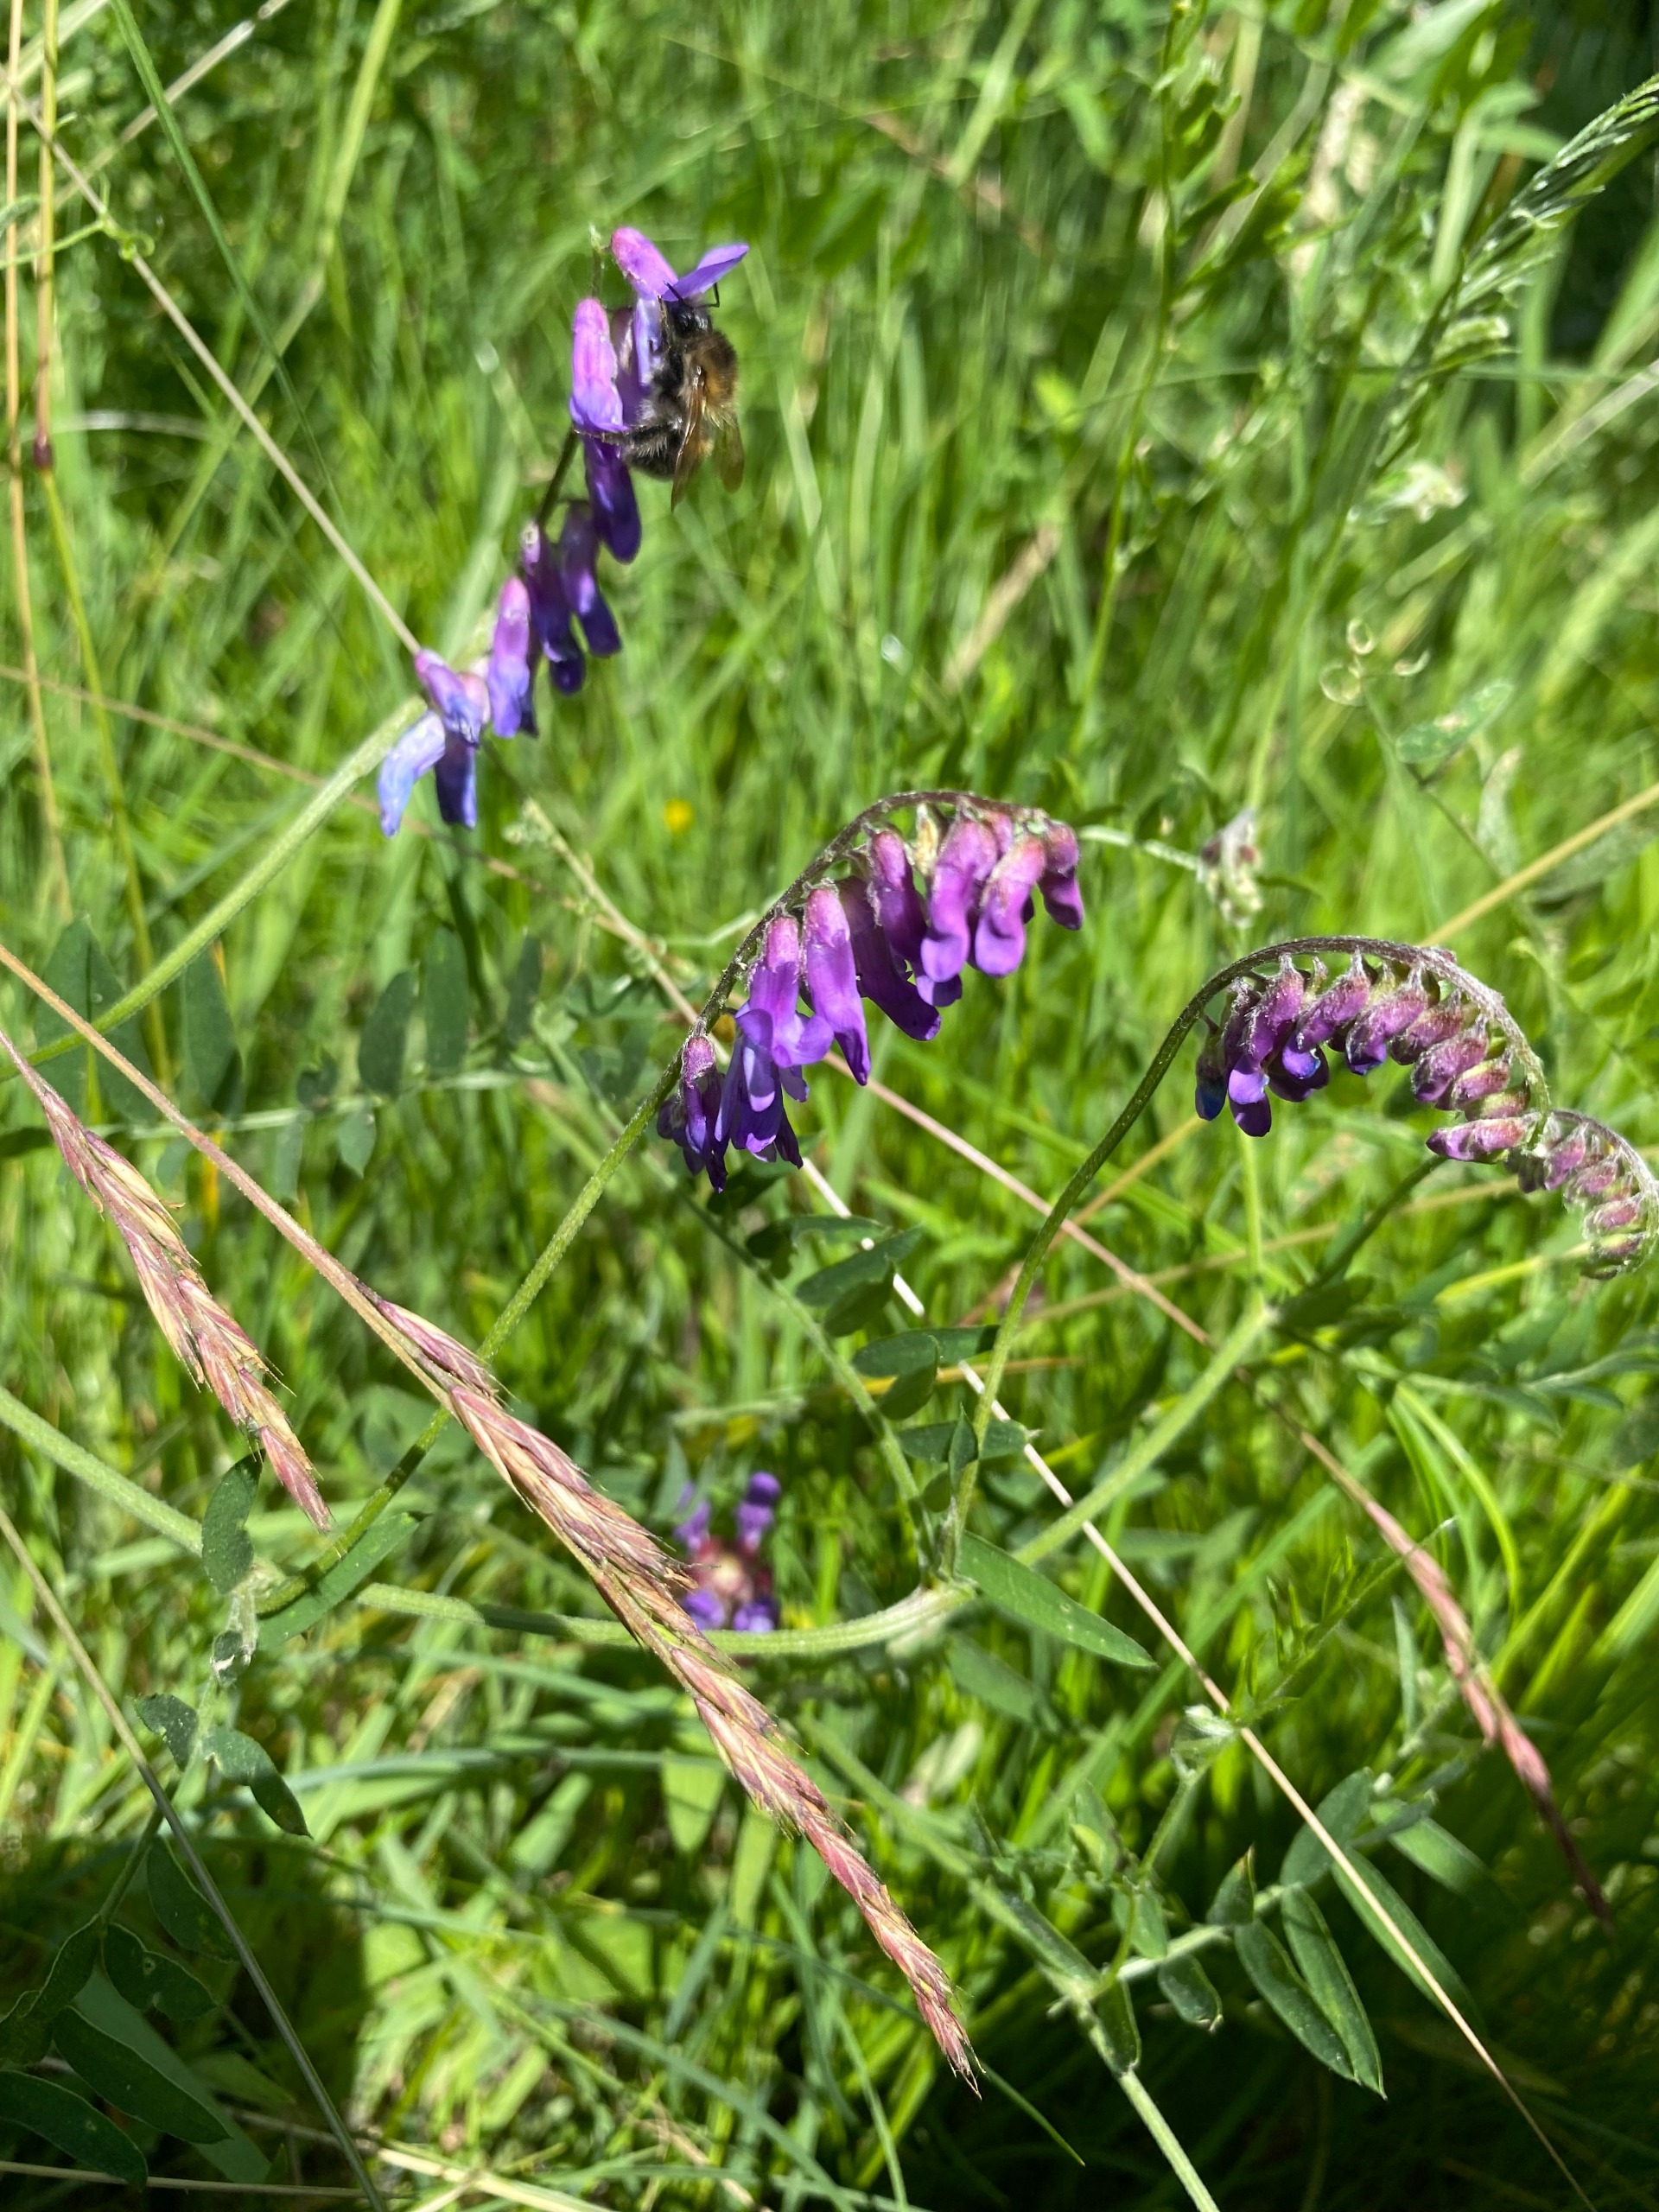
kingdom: Plantae
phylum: Tracheophyta
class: Magnoliopsida
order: Fabales
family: Fabaceae
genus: Vicia
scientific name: Vicia cracca
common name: Muse-vikke
